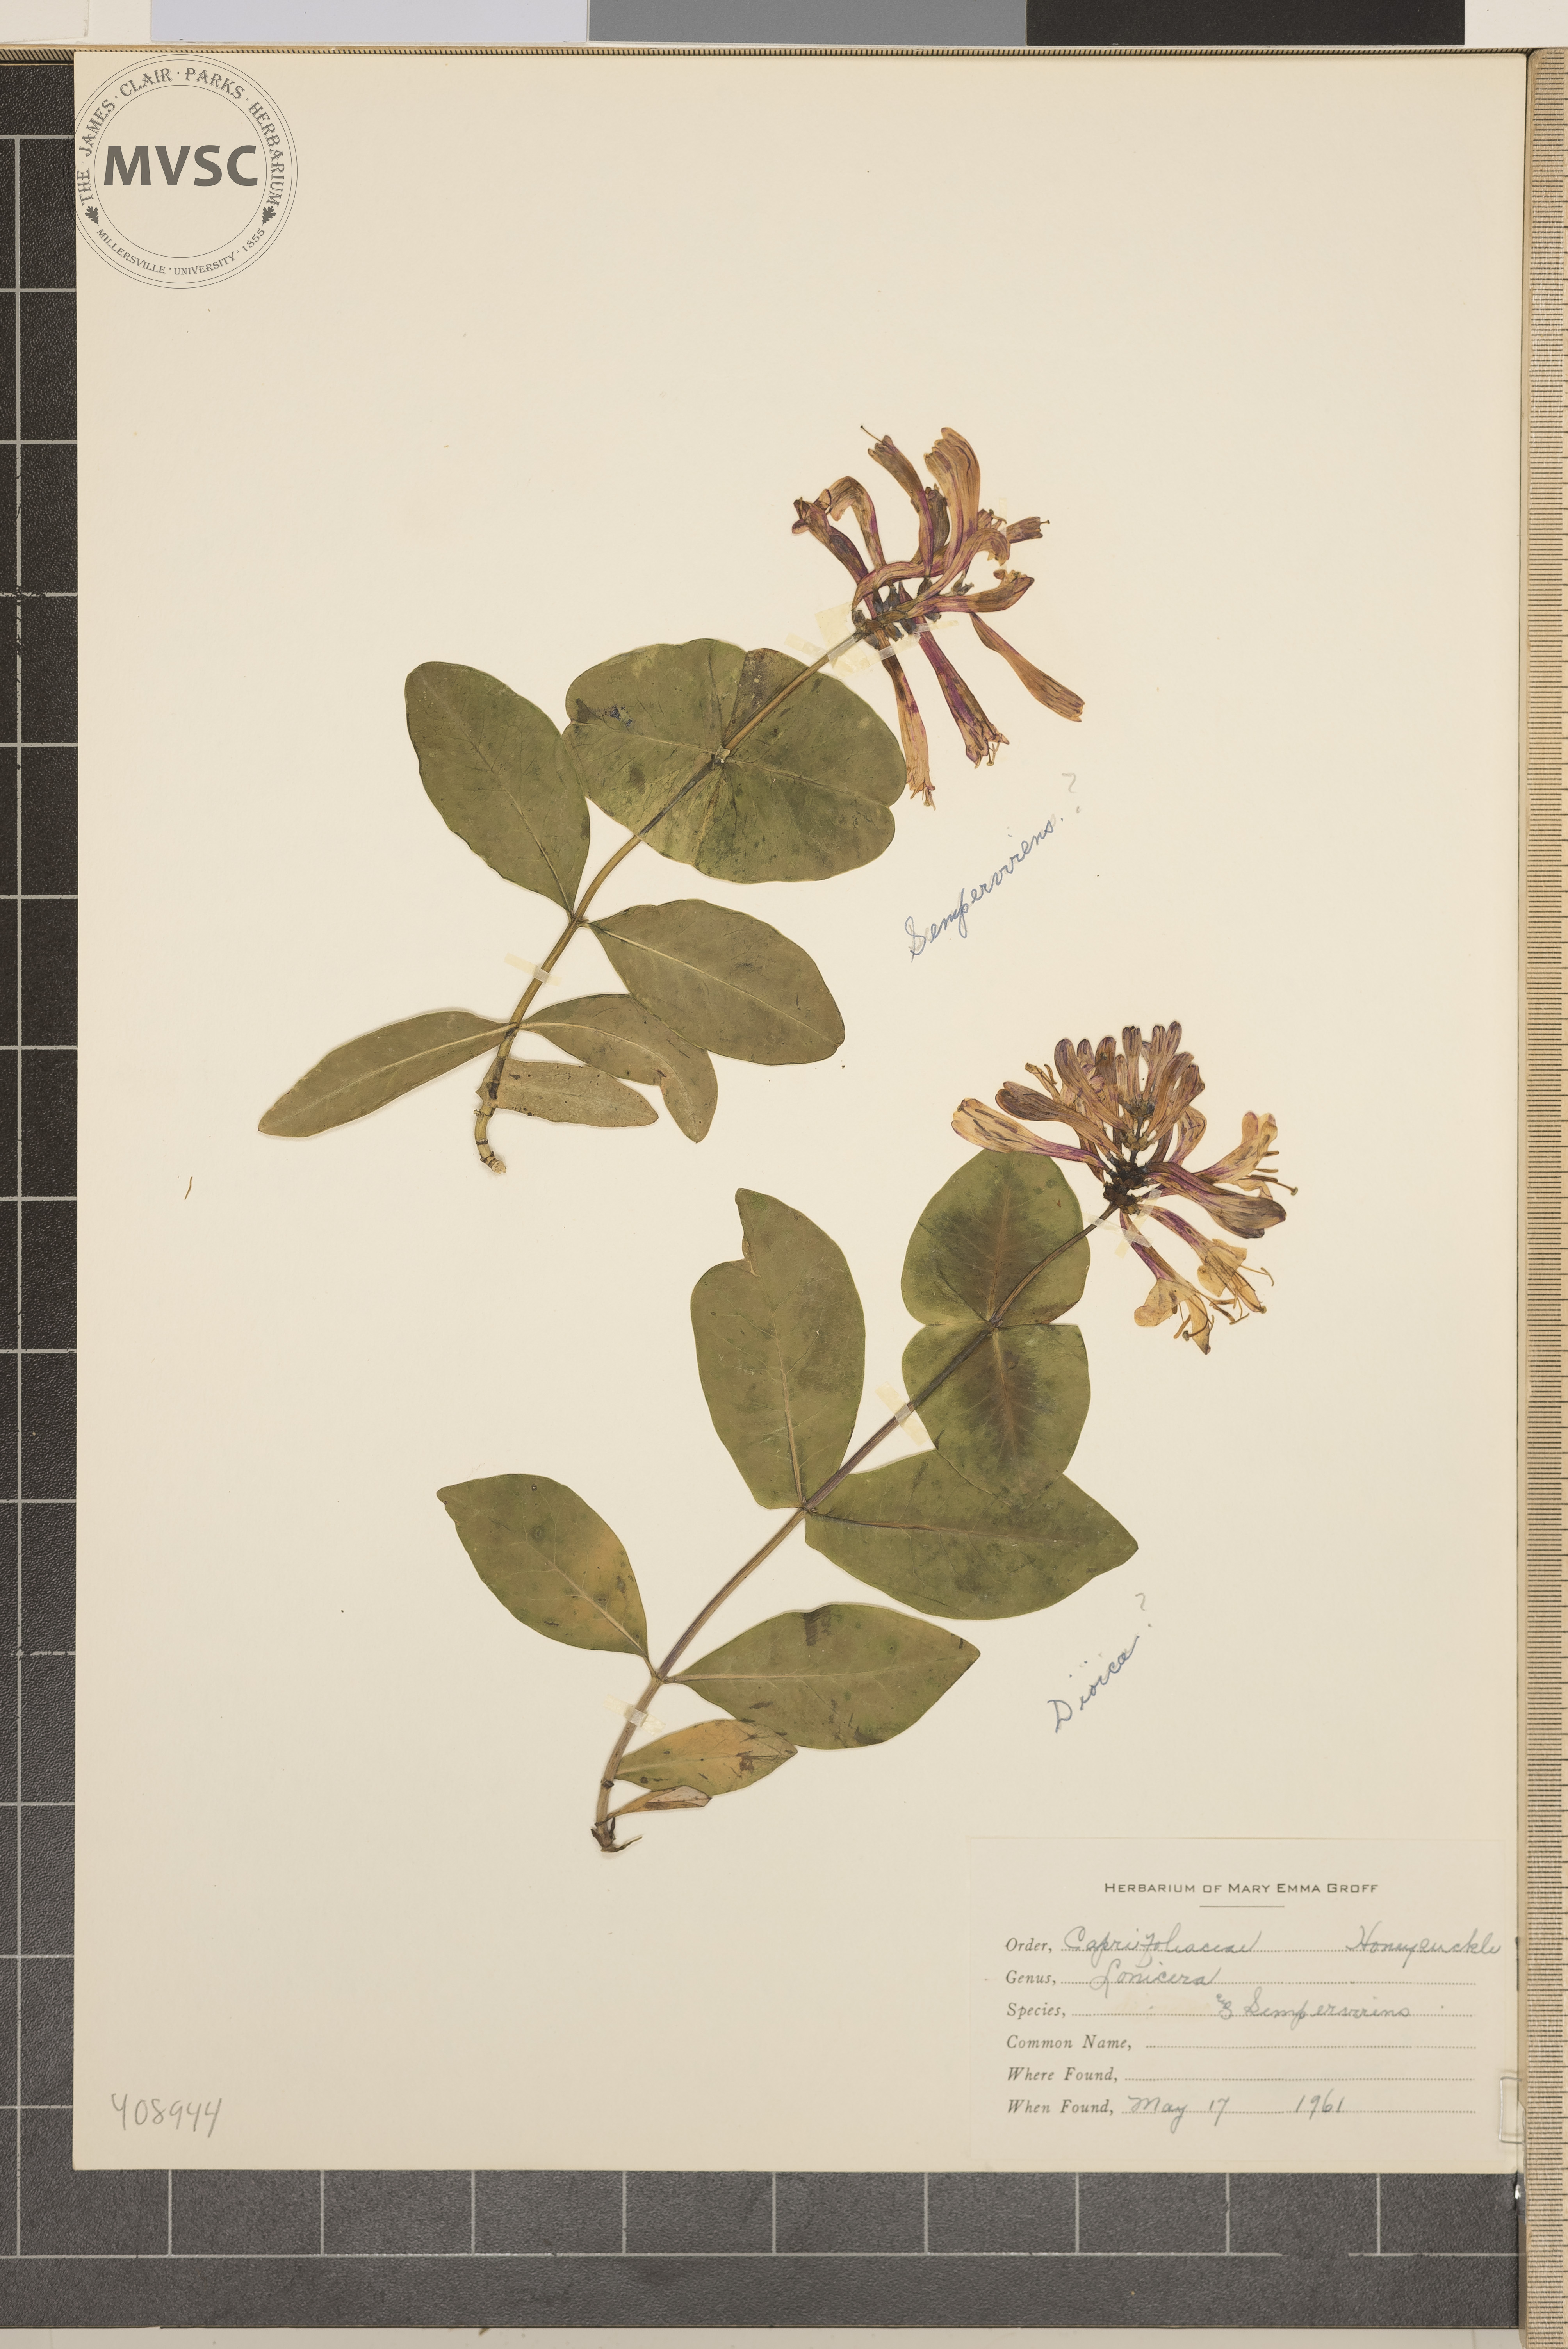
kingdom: Plantae
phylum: Tracheophyta
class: Magnoliopsida
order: Dipsacales
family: Caprifoliaceae
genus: Lonicera
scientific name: Lonicera sempervirens
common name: Trumpet Honeysuckle
